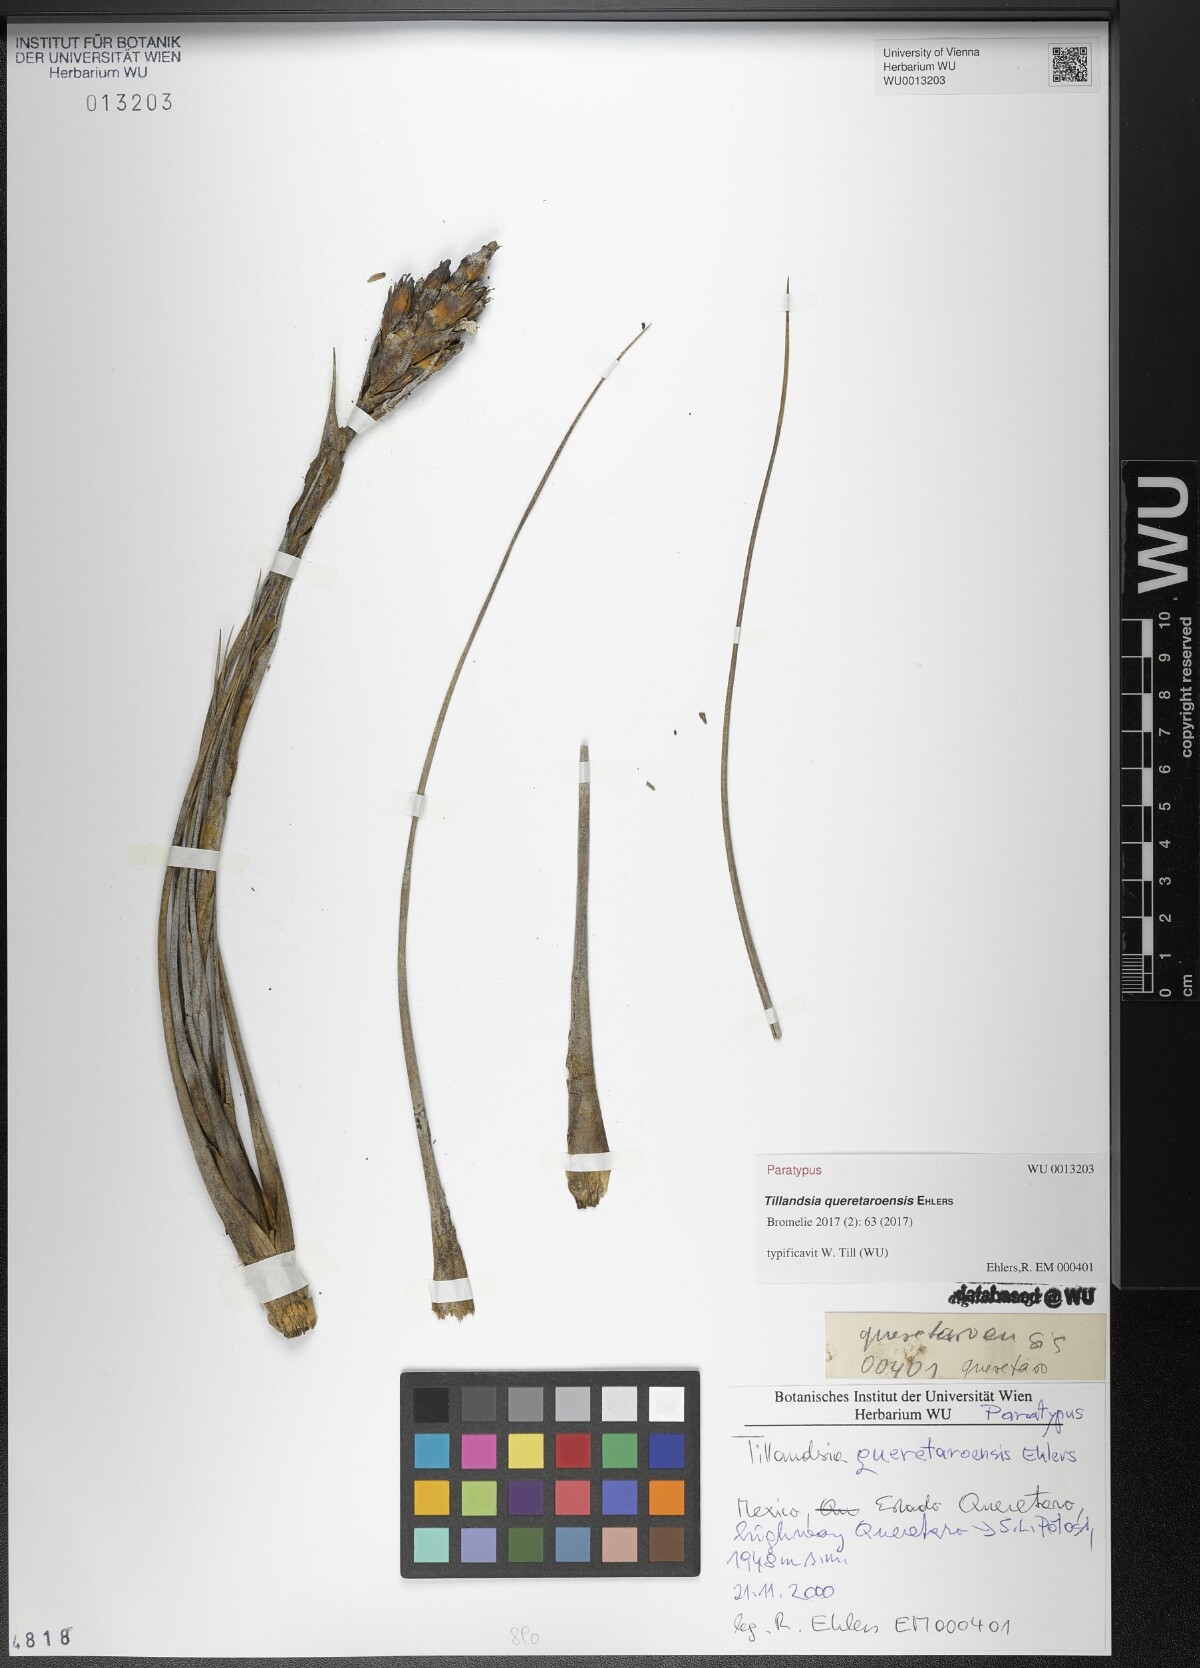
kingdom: Plantae
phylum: Tracheophyta
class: Liliopsida
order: Poales
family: Bromeliaceae
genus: Tillandsia
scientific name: Tillandsia queretaroensis
